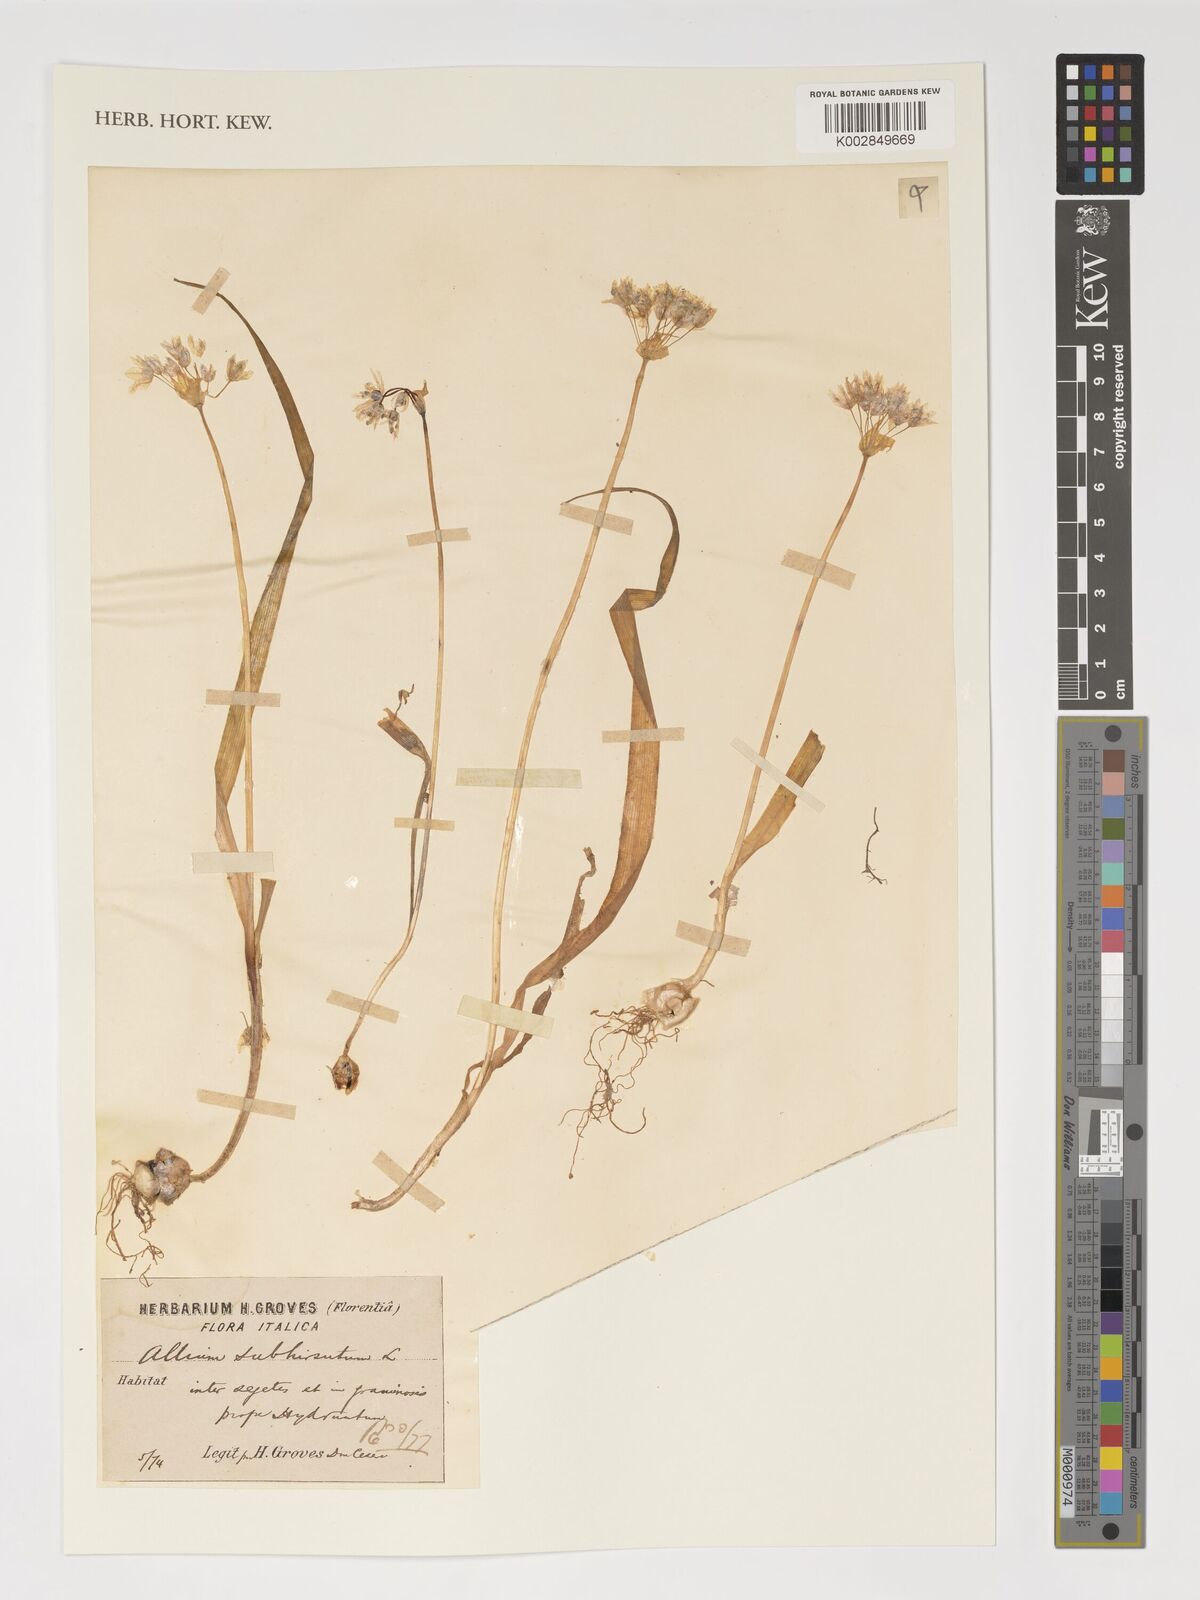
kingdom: Plantae
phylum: Tracheophyta
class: Liliopsida
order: Asparagales
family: Amaryllidaceae
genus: Allium
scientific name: Allium subhirsutum
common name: Hairy garlic
